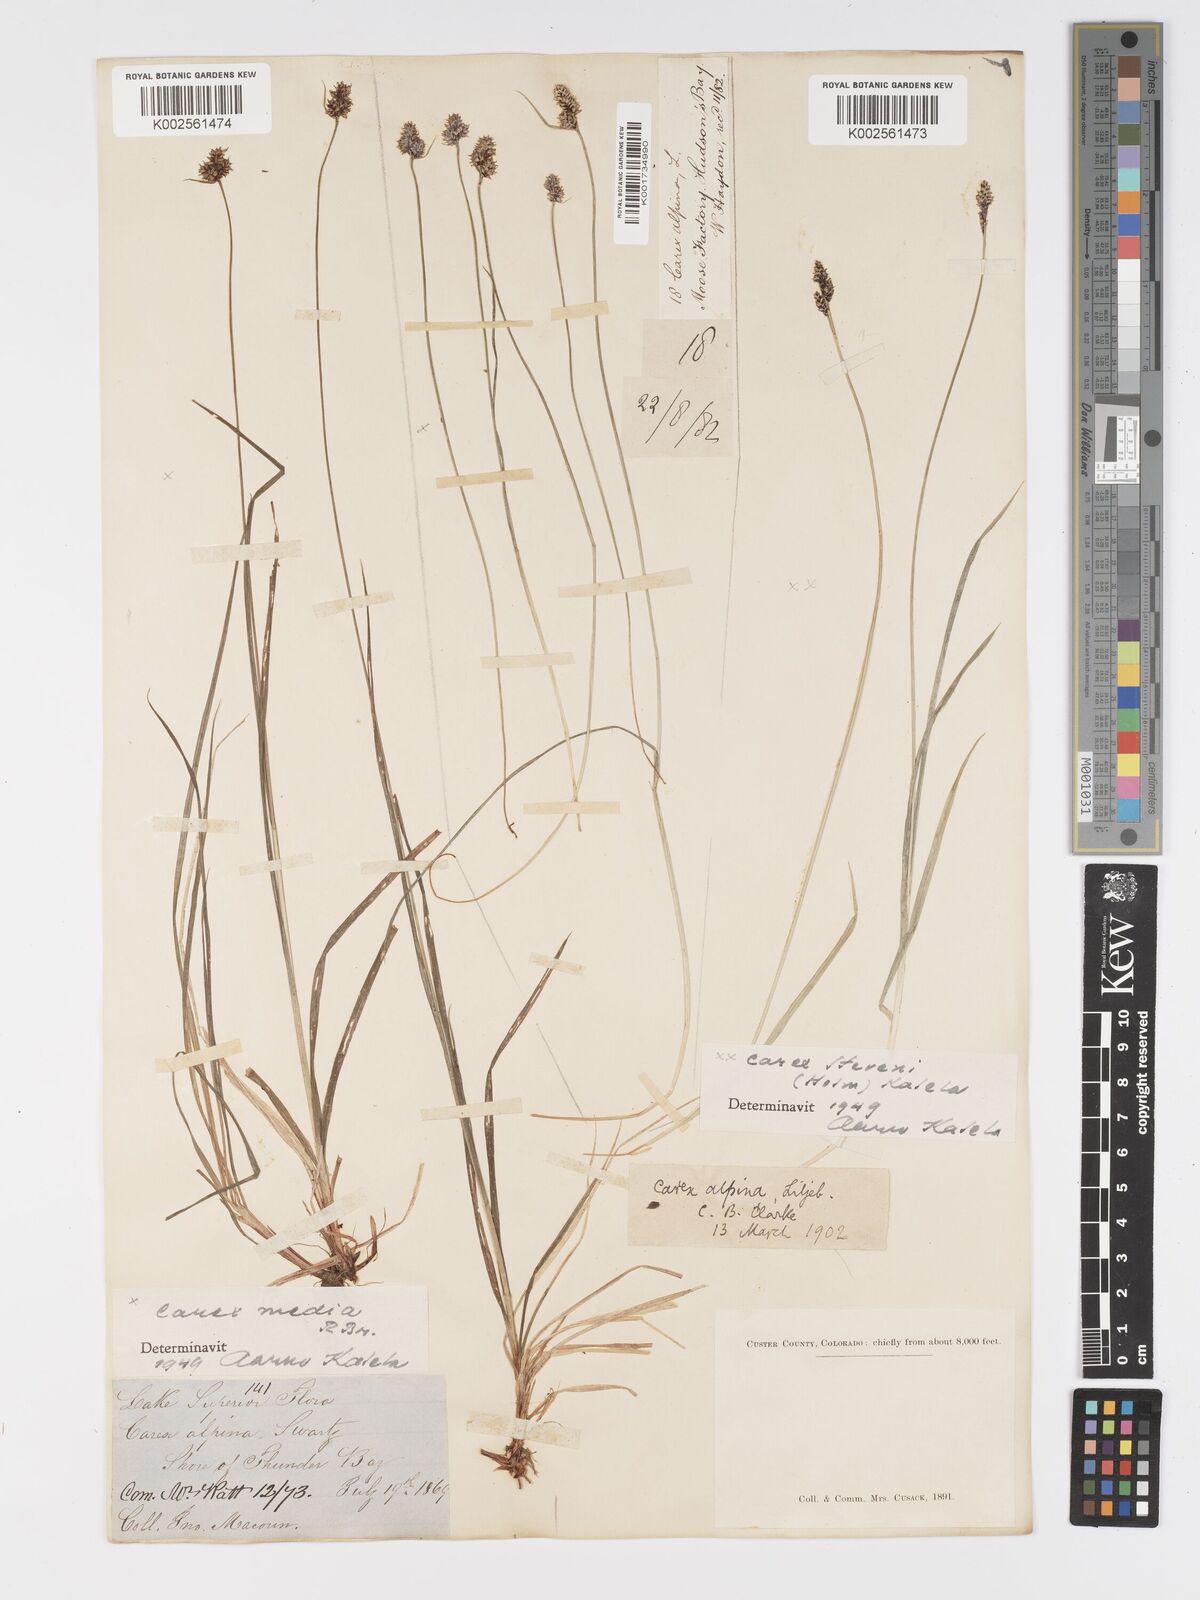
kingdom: Plantae
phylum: Tracheophyta
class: Liliopsida
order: Poales
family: Cyperaceae
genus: Carex
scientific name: Carex stevenii
